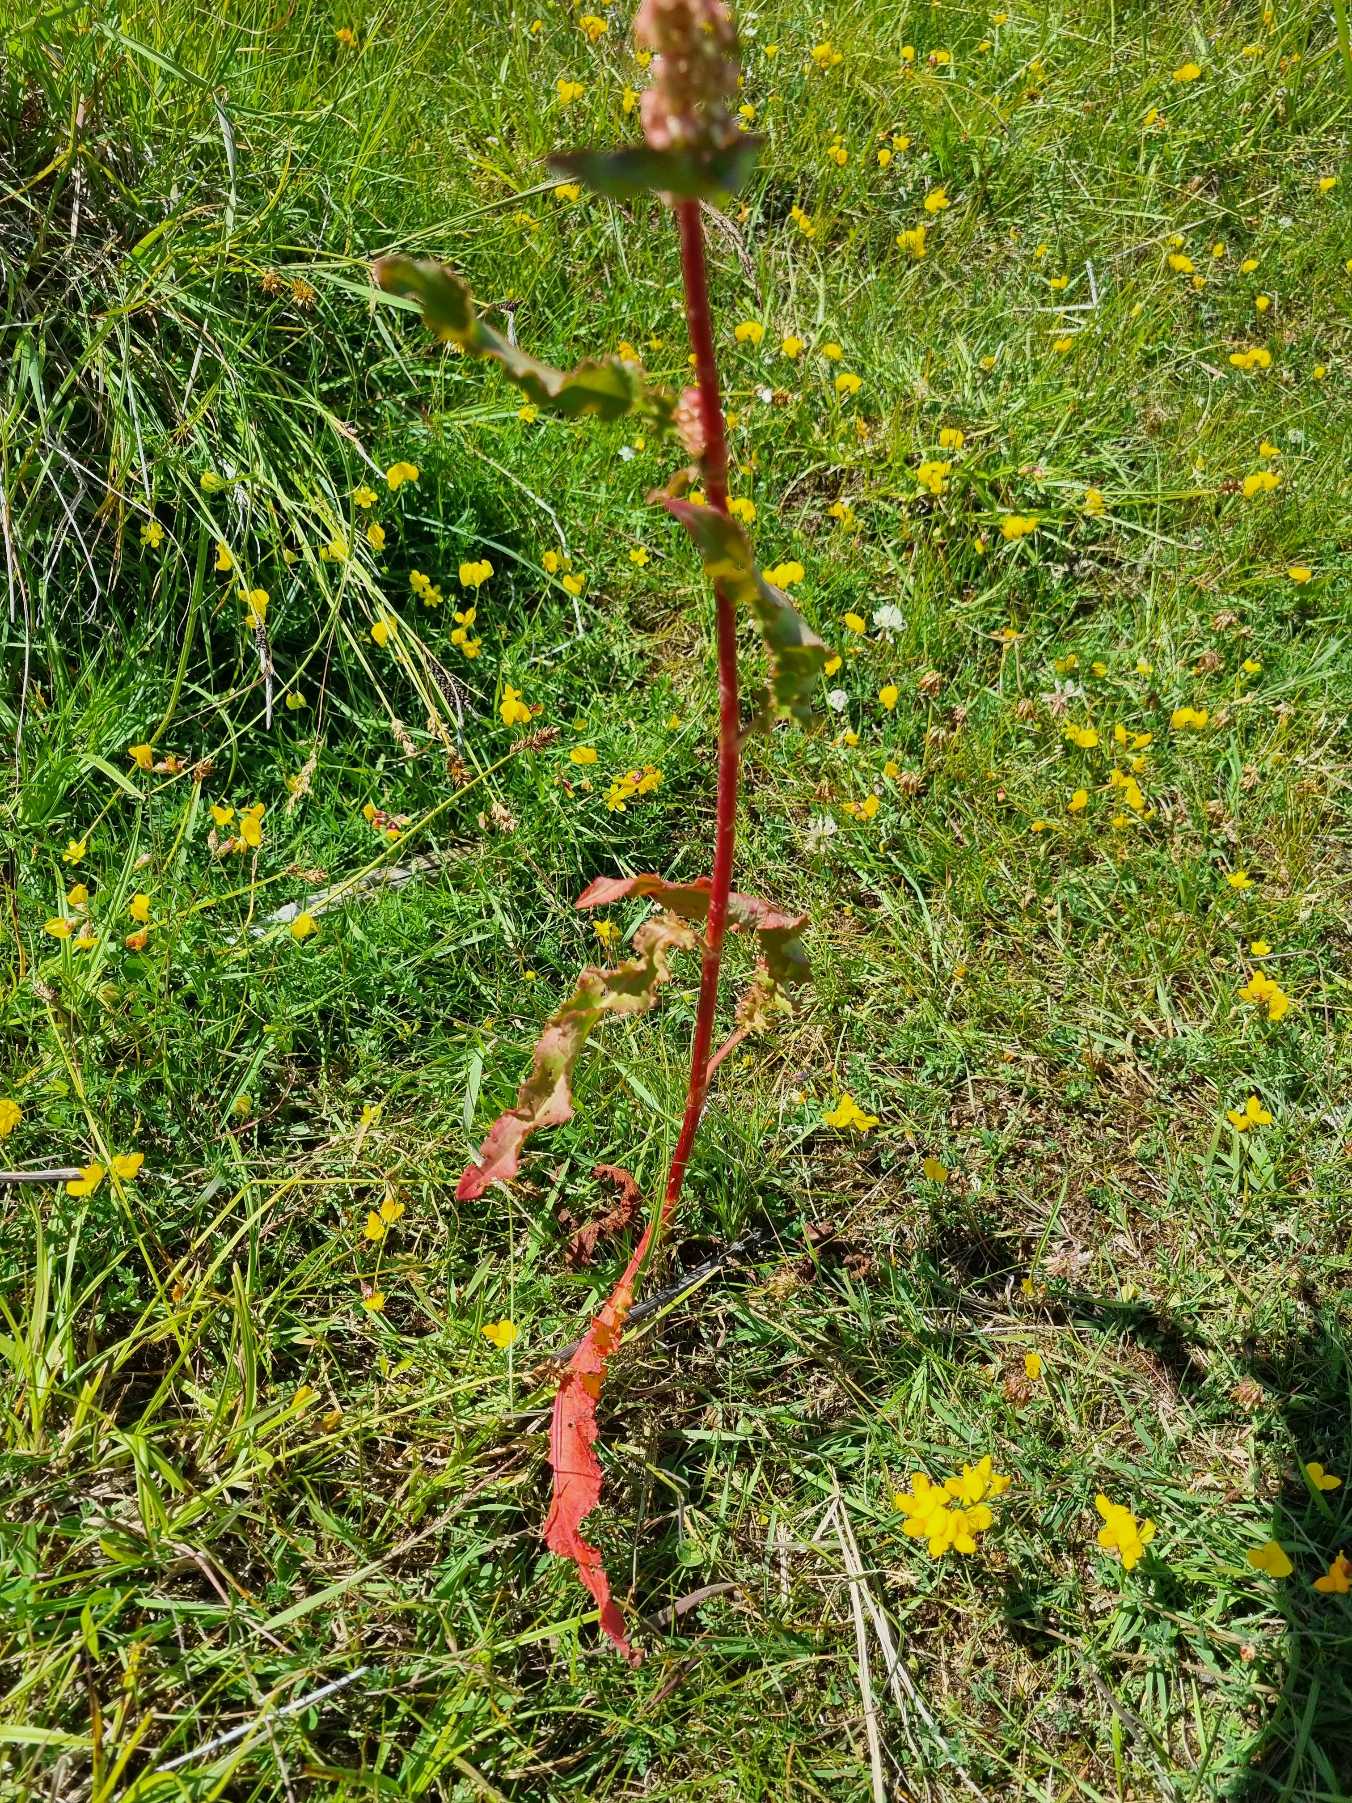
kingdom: Plantae
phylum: Tracheophyta
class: Magnoliopsida
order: Caryophyllales
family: Polygonaceae
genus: Rumex
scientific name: Rumex crispus
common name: Kruset skræppe
